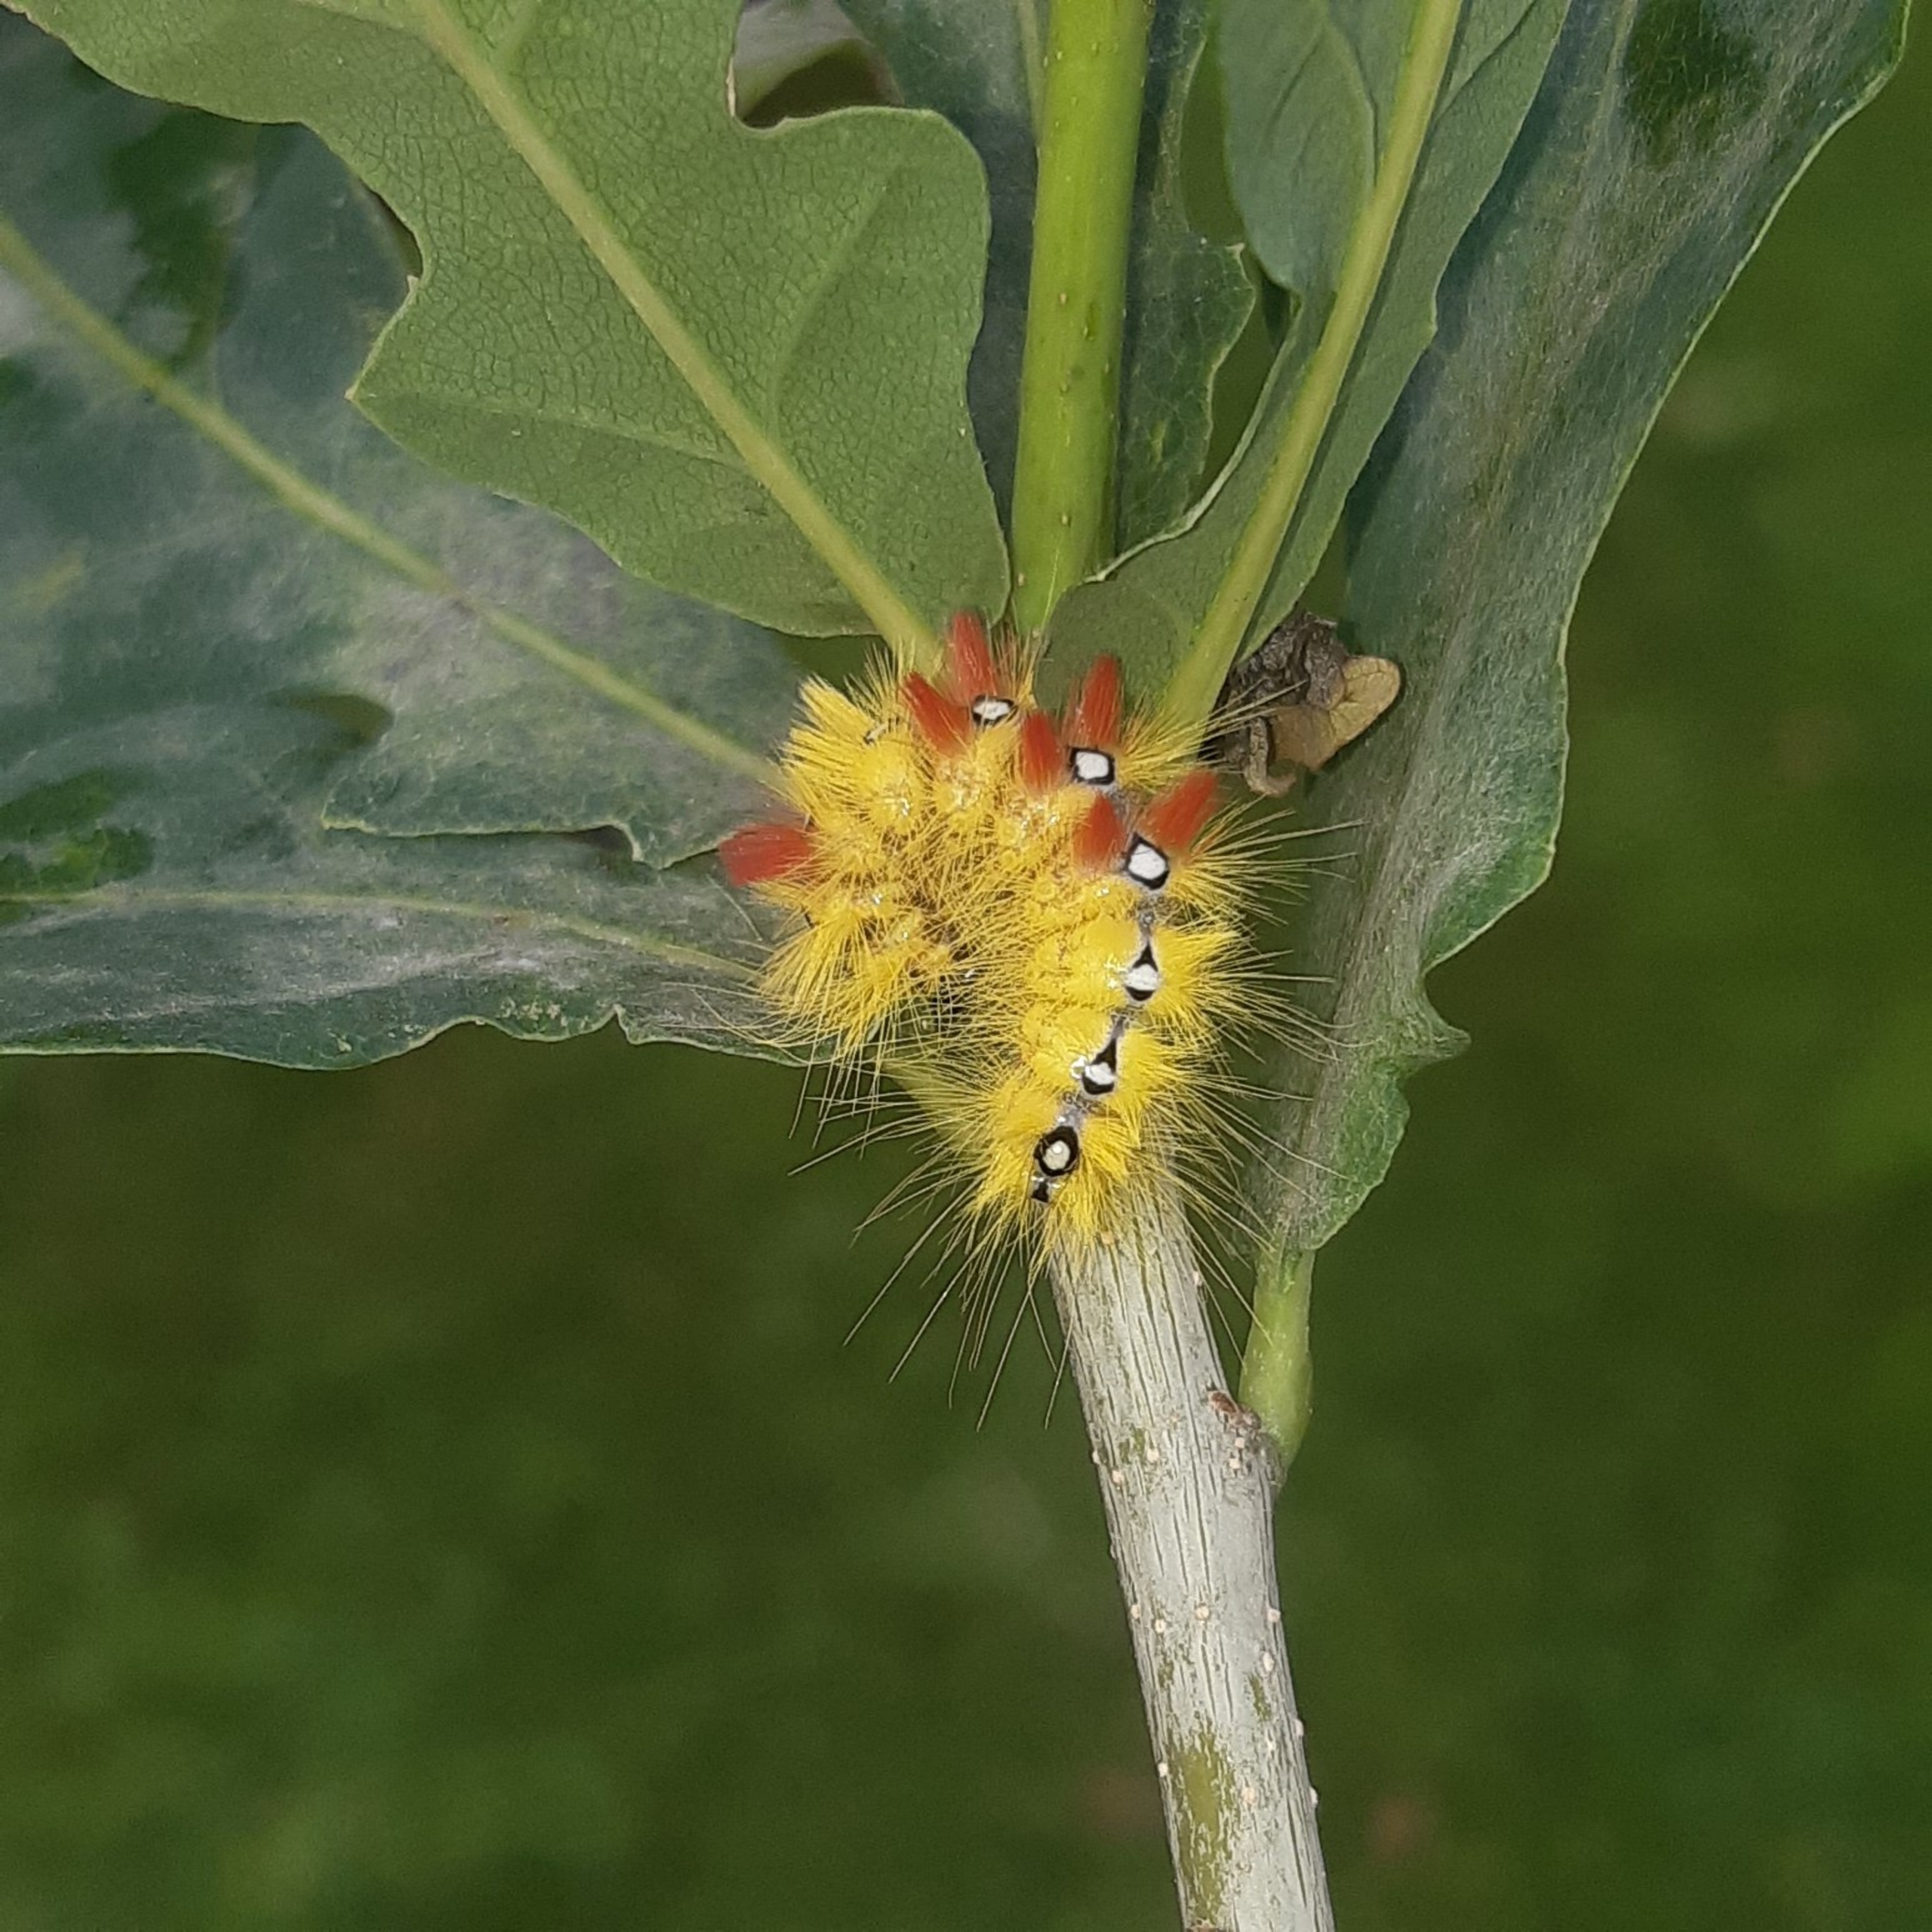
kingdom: Animalia
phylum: Arthropoda
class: Insecta
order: Lepidoptera
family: Noctuidae
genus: Acronicta
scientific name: Acronicta aceris
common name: Ahornugle
